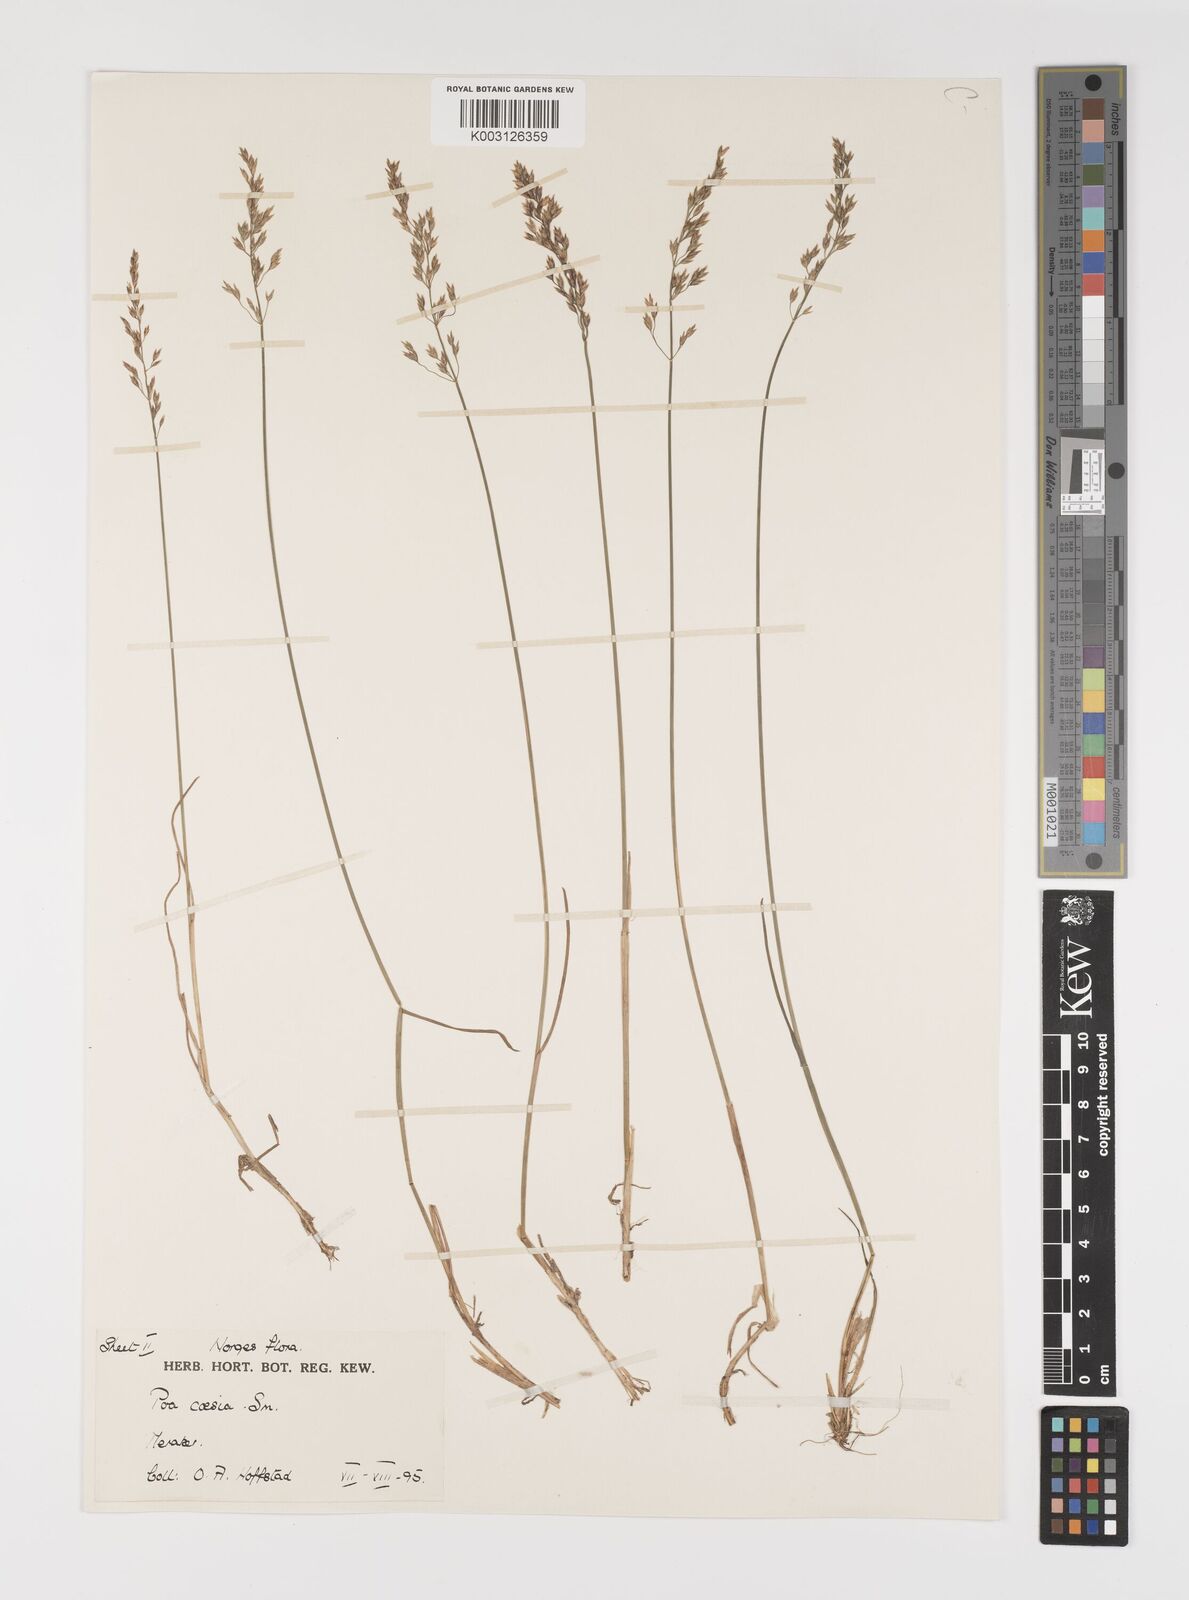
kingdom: Plantae
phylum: Tracheophyta
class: Liliopsida
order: Poales
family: Poaceae
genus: Poa
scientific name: Poa glauca
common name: Glaucous bluegrass
